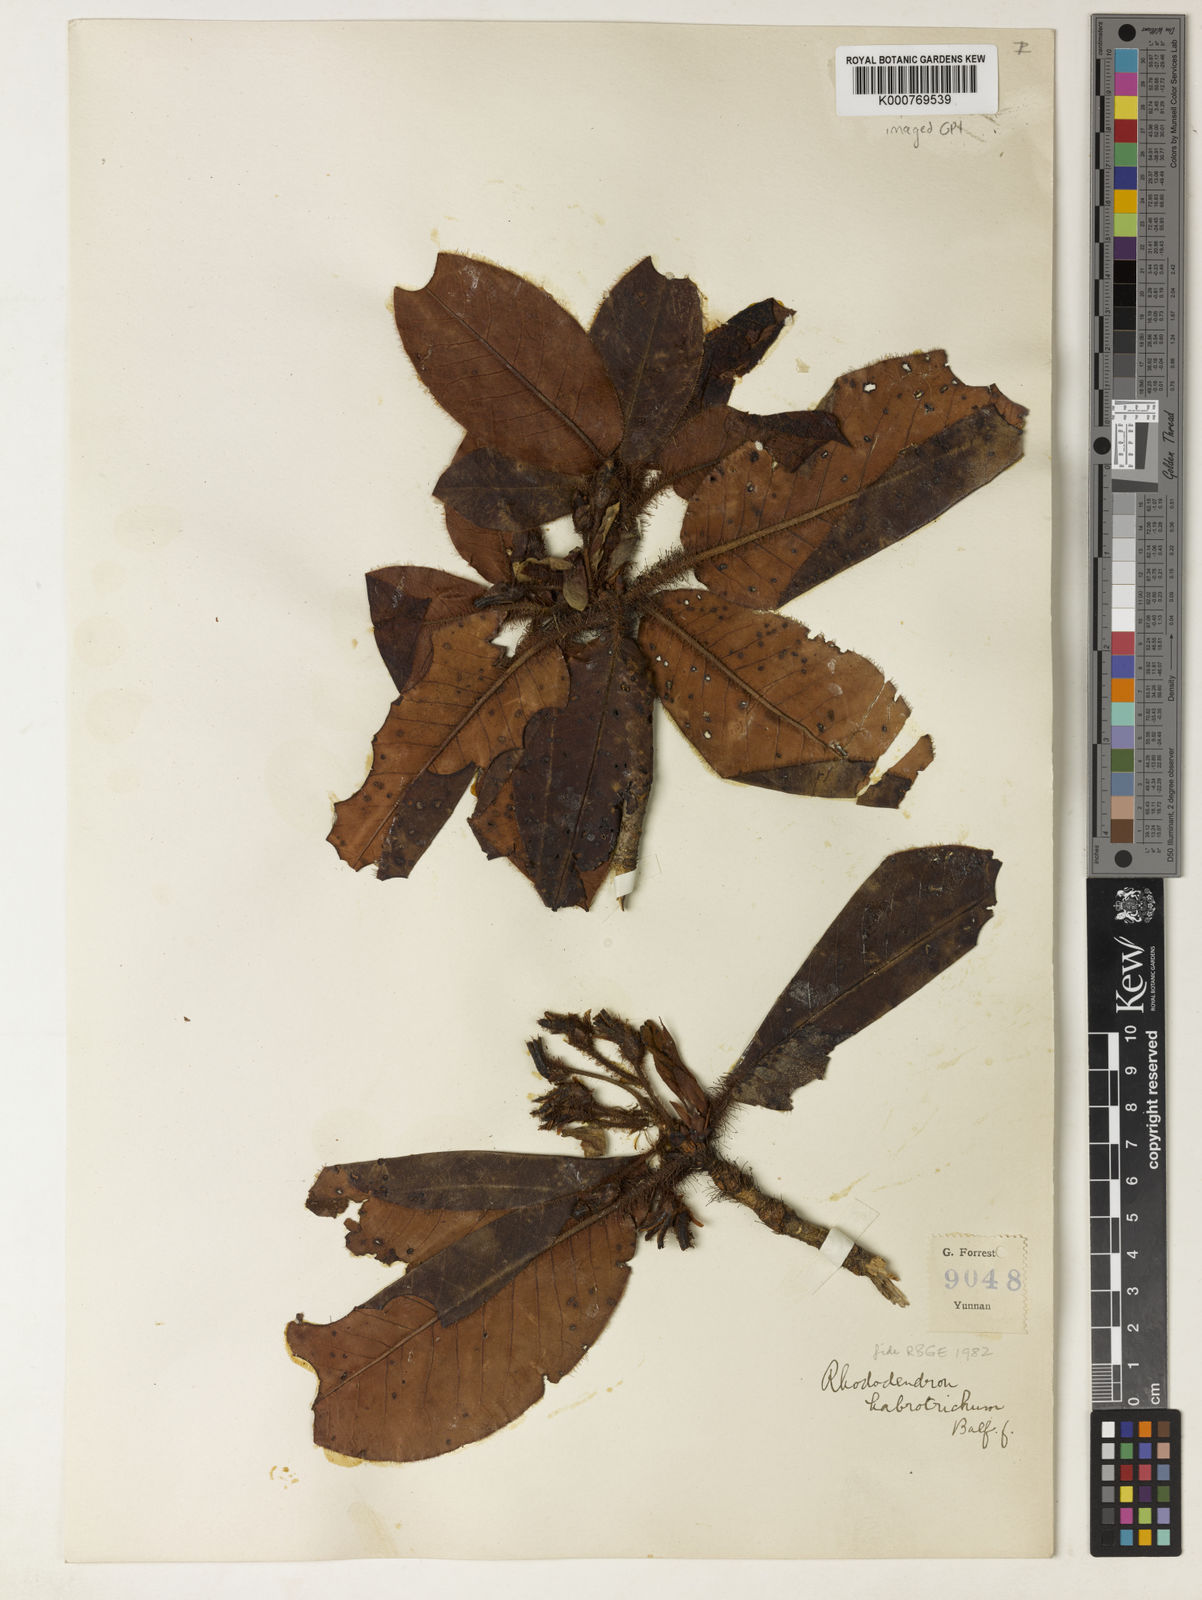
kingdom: Plantae
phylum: Tracheophyta
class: Magnoliopsida
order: Ericales
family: Ericaceae
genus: Rhododendron
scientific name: Rhododendron habrotrichum
